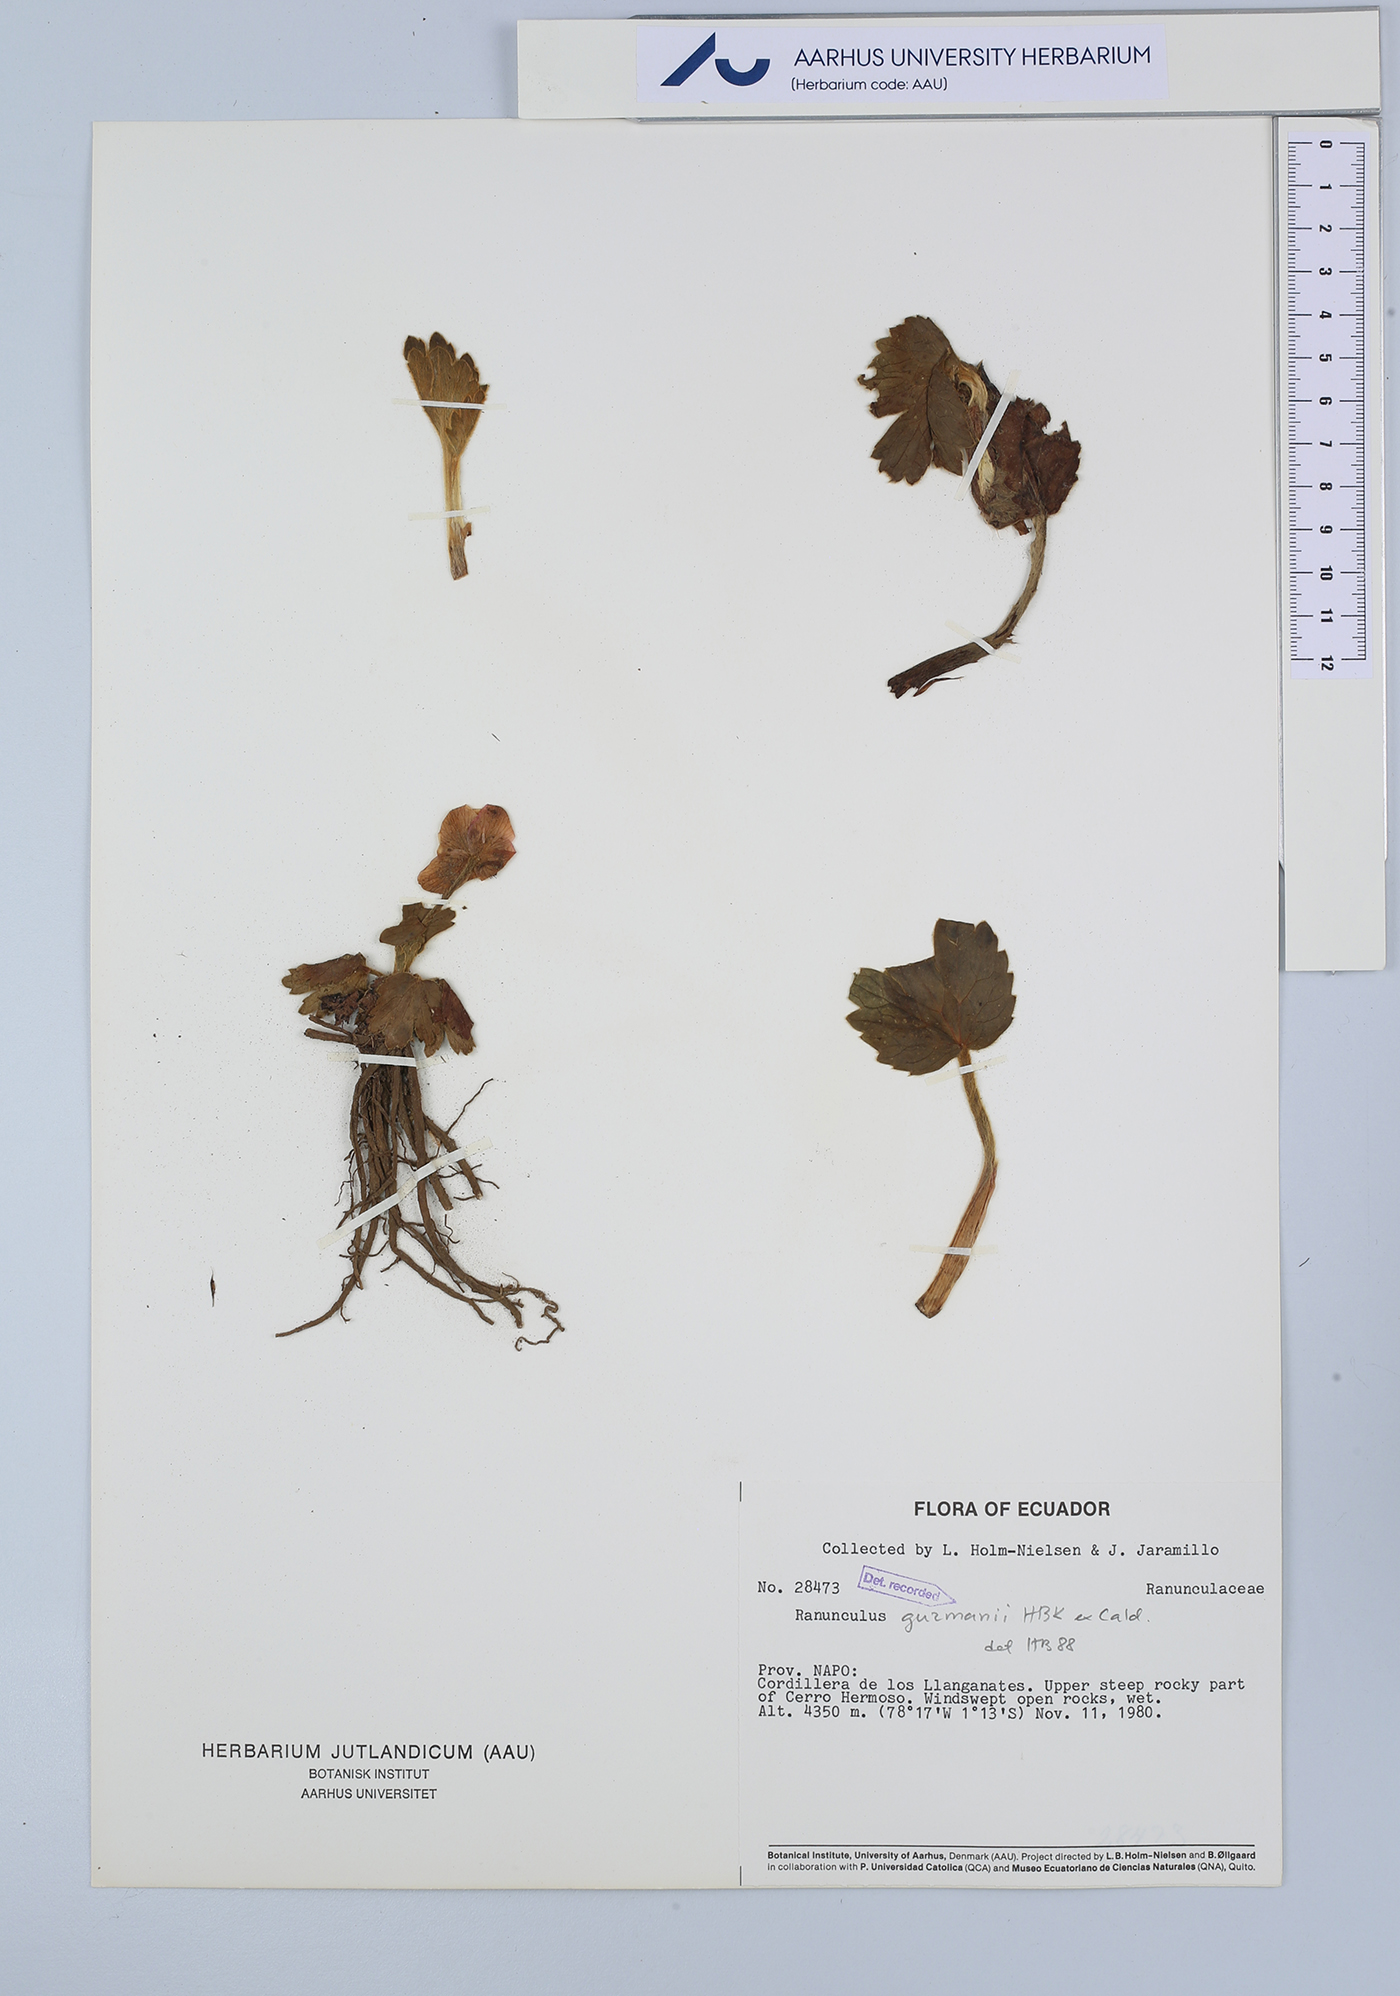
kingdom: Plantae
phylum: Tracheophyta
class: Magnoliopsida
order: Ranunculales
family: Ranunculaceae
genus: Krapfia
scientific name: Krapfia ranunculina
